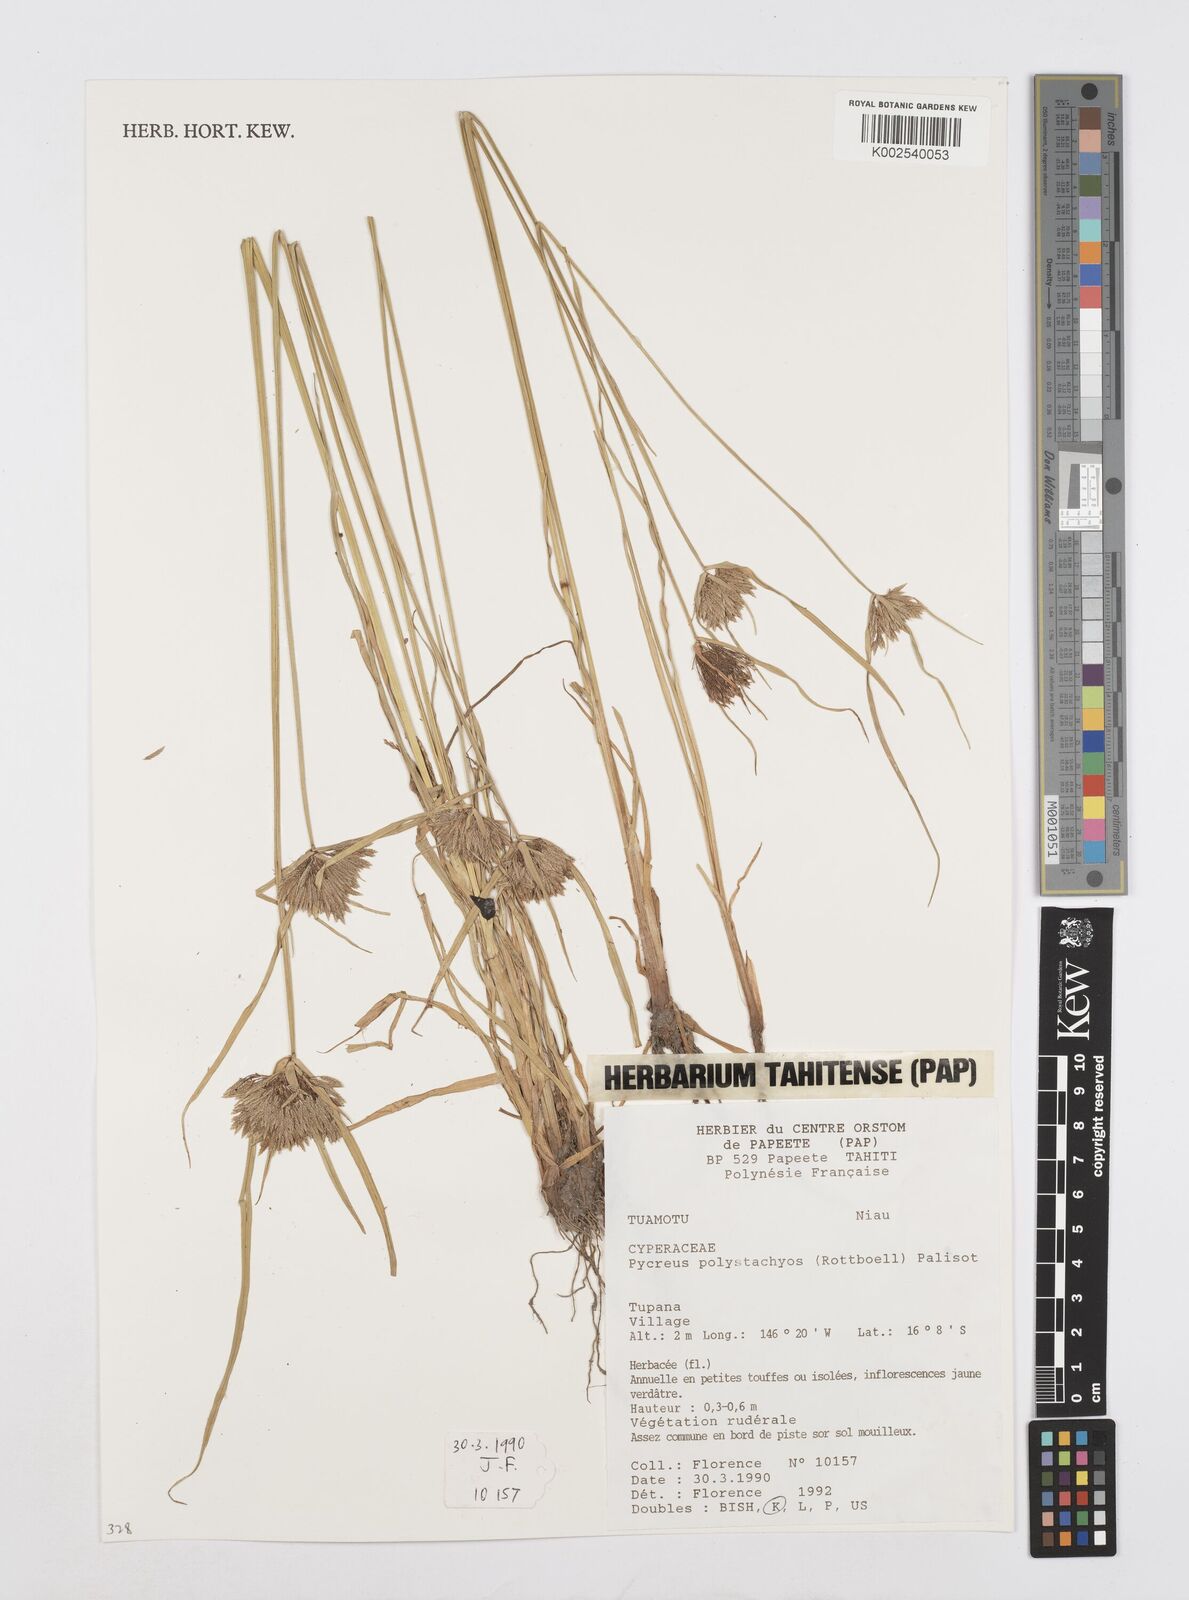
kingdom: Plantae
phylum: Tracheophyta
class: Liliopsida
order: Poales
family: Cyperaceae
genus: Cyperus
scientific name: Cyperus polystachyos
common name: Bunchy flat sedge
